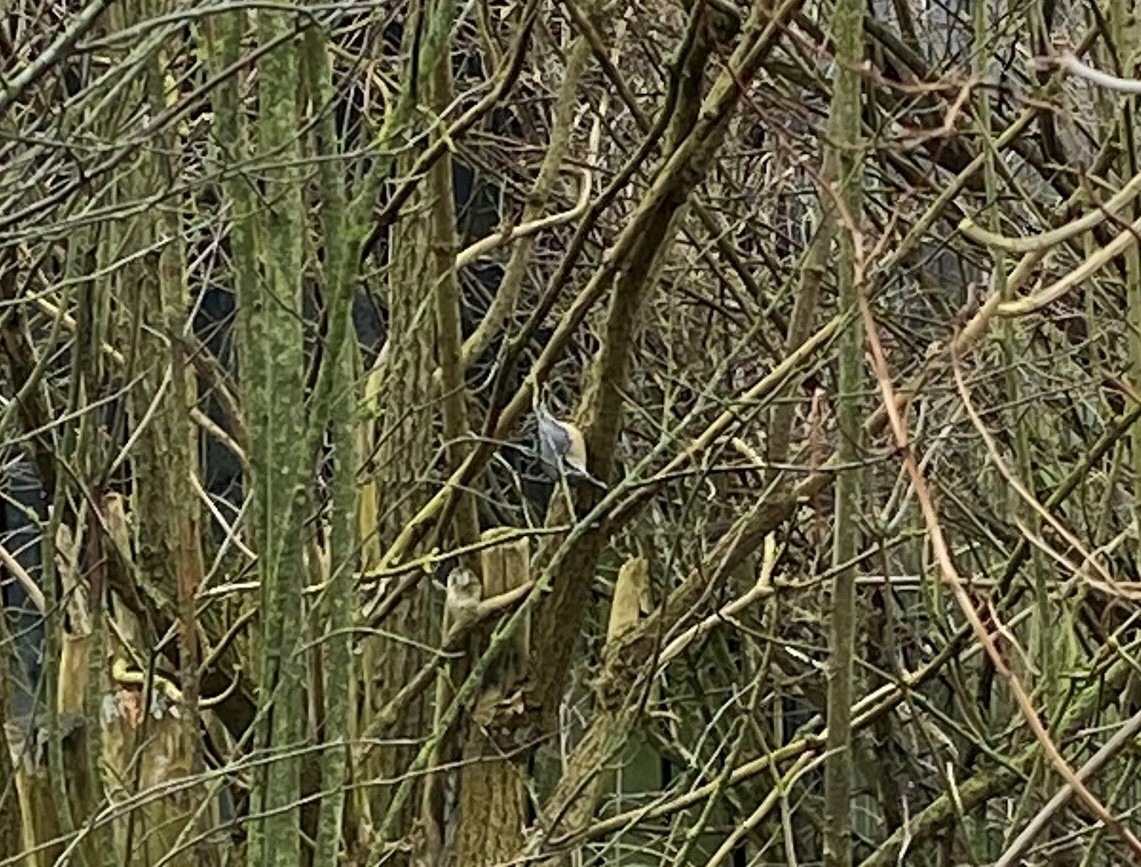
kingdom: Animalia
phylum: Chordata
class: Aves
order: Passeriformes
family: Sittidae
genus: Sitta
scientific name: Sitta europaea
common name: Spætmejse
